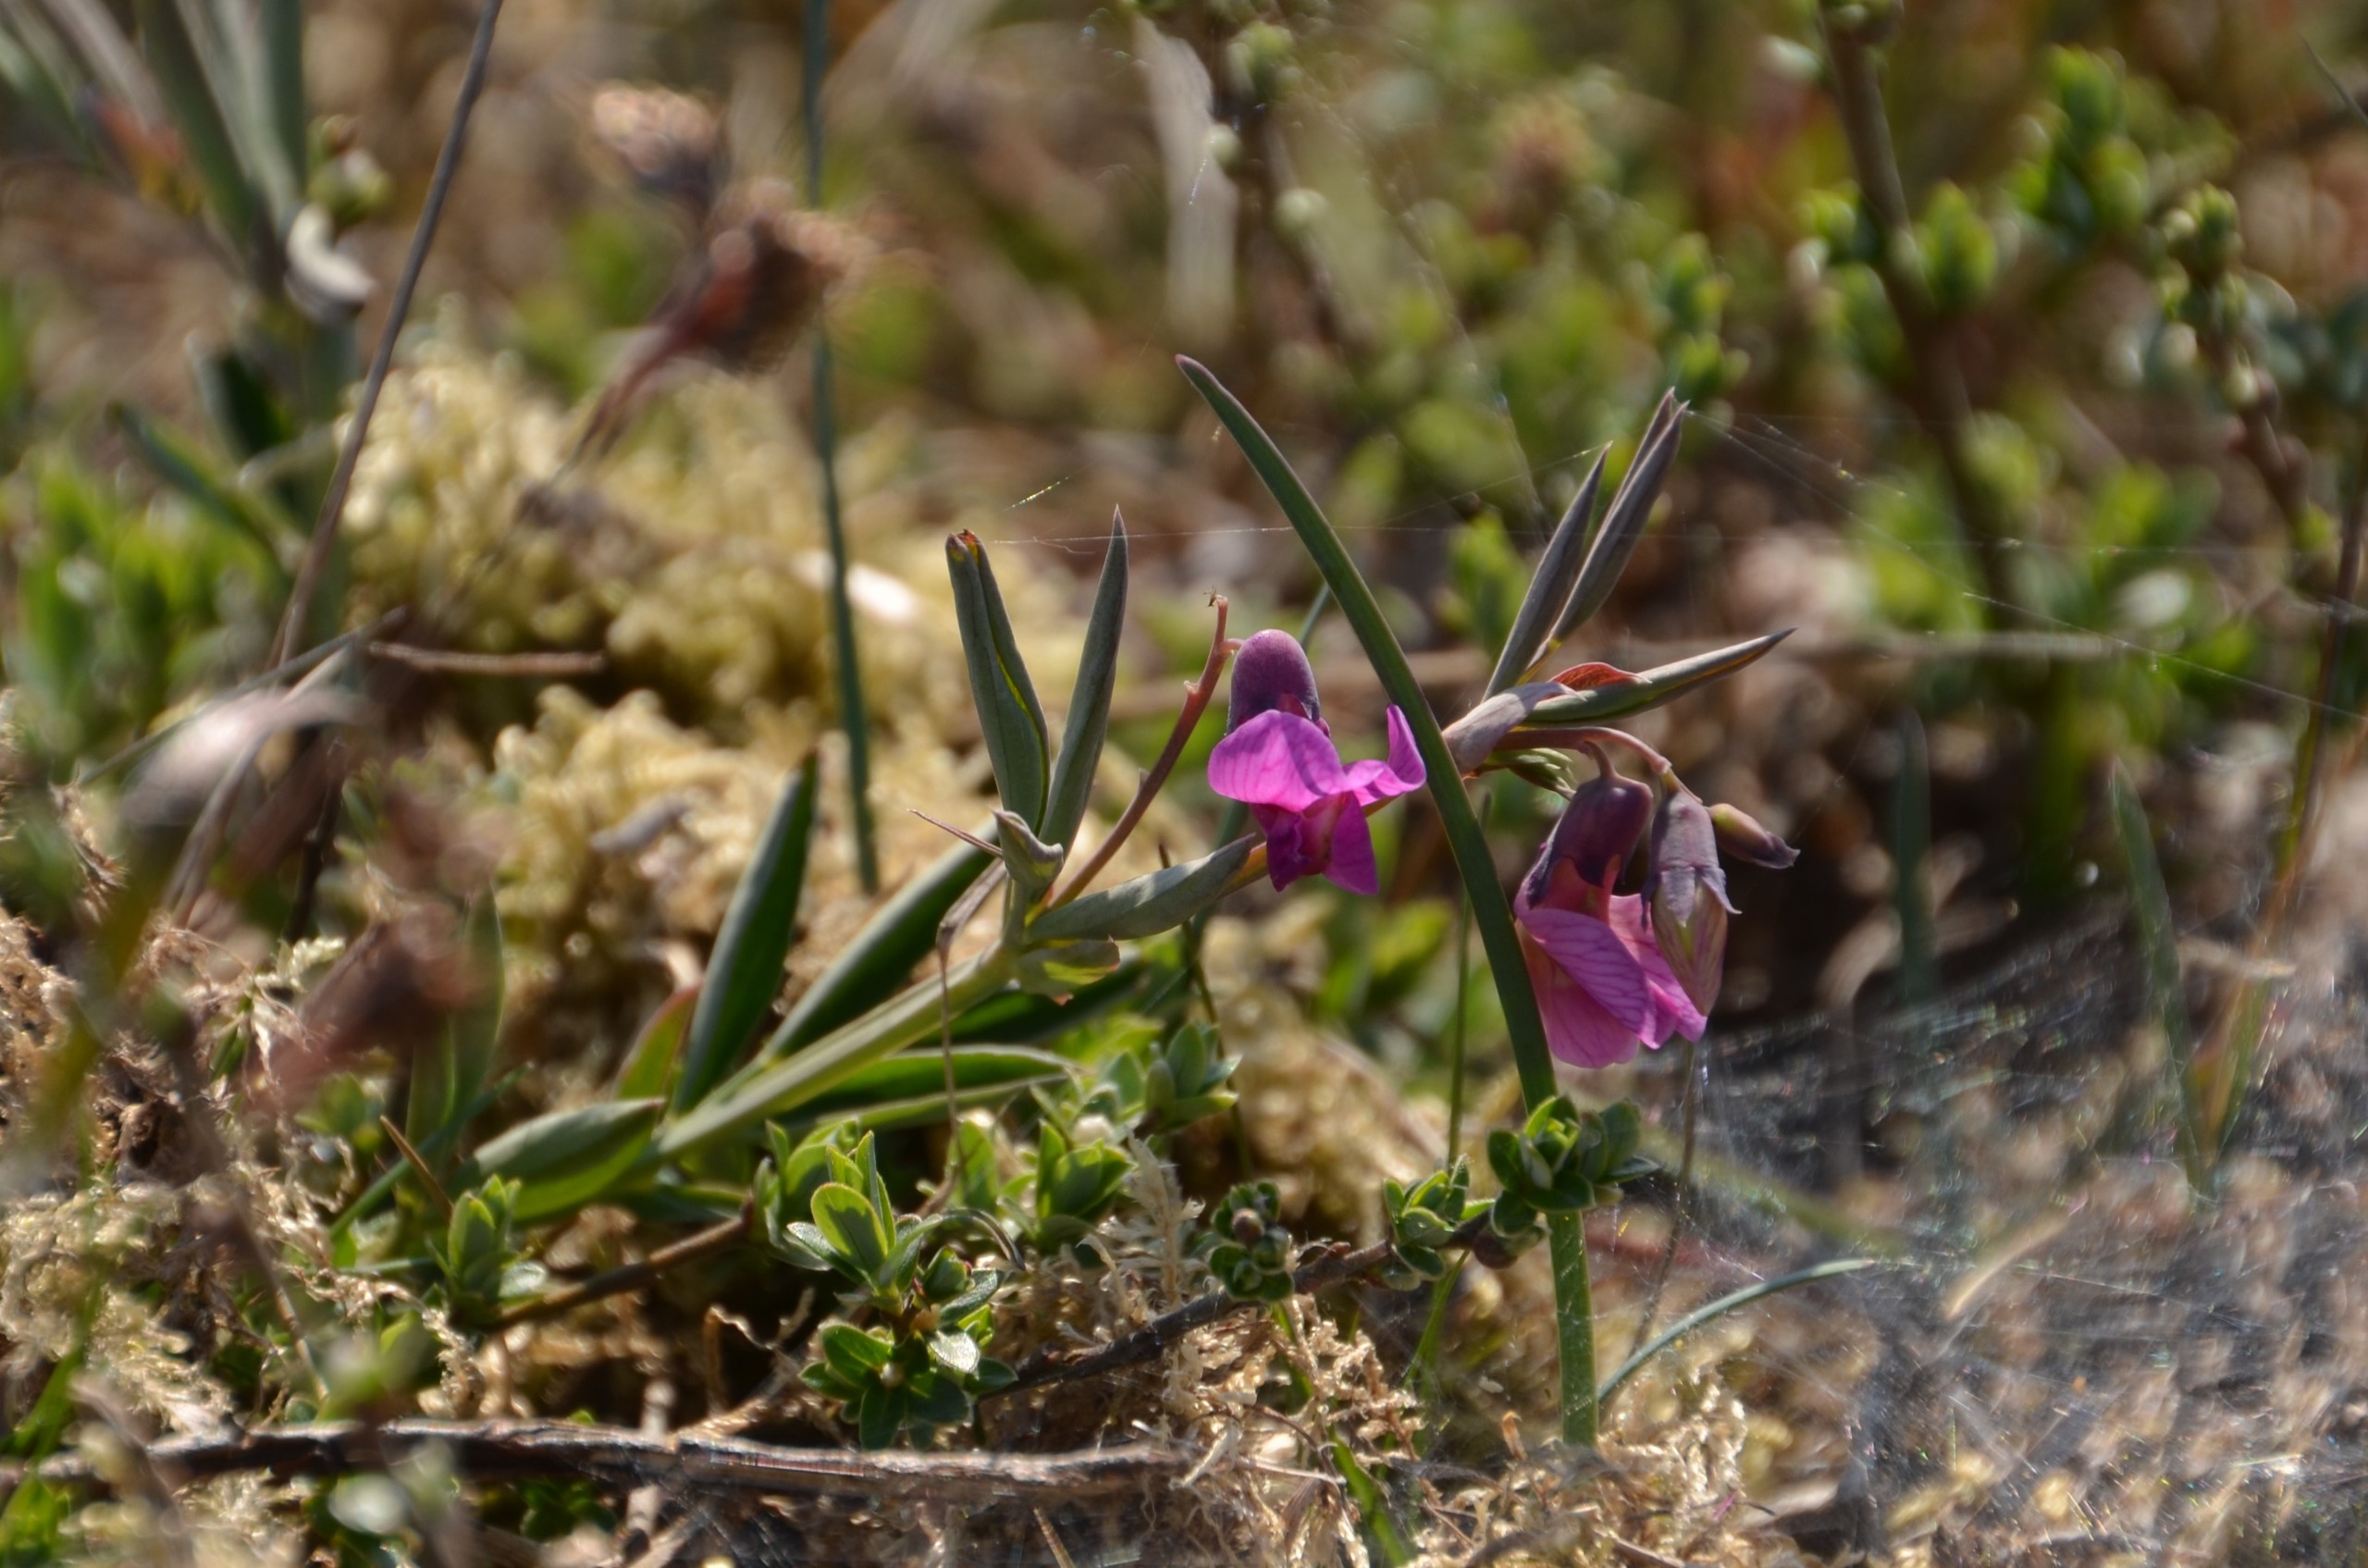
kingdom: Plantae
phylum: Tracheophyta
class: Magnoliopsida
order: Fabales
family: Fabaceae
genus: Lathyrus
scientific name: Lathyrus linifolius
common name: Krat-fladbælg
